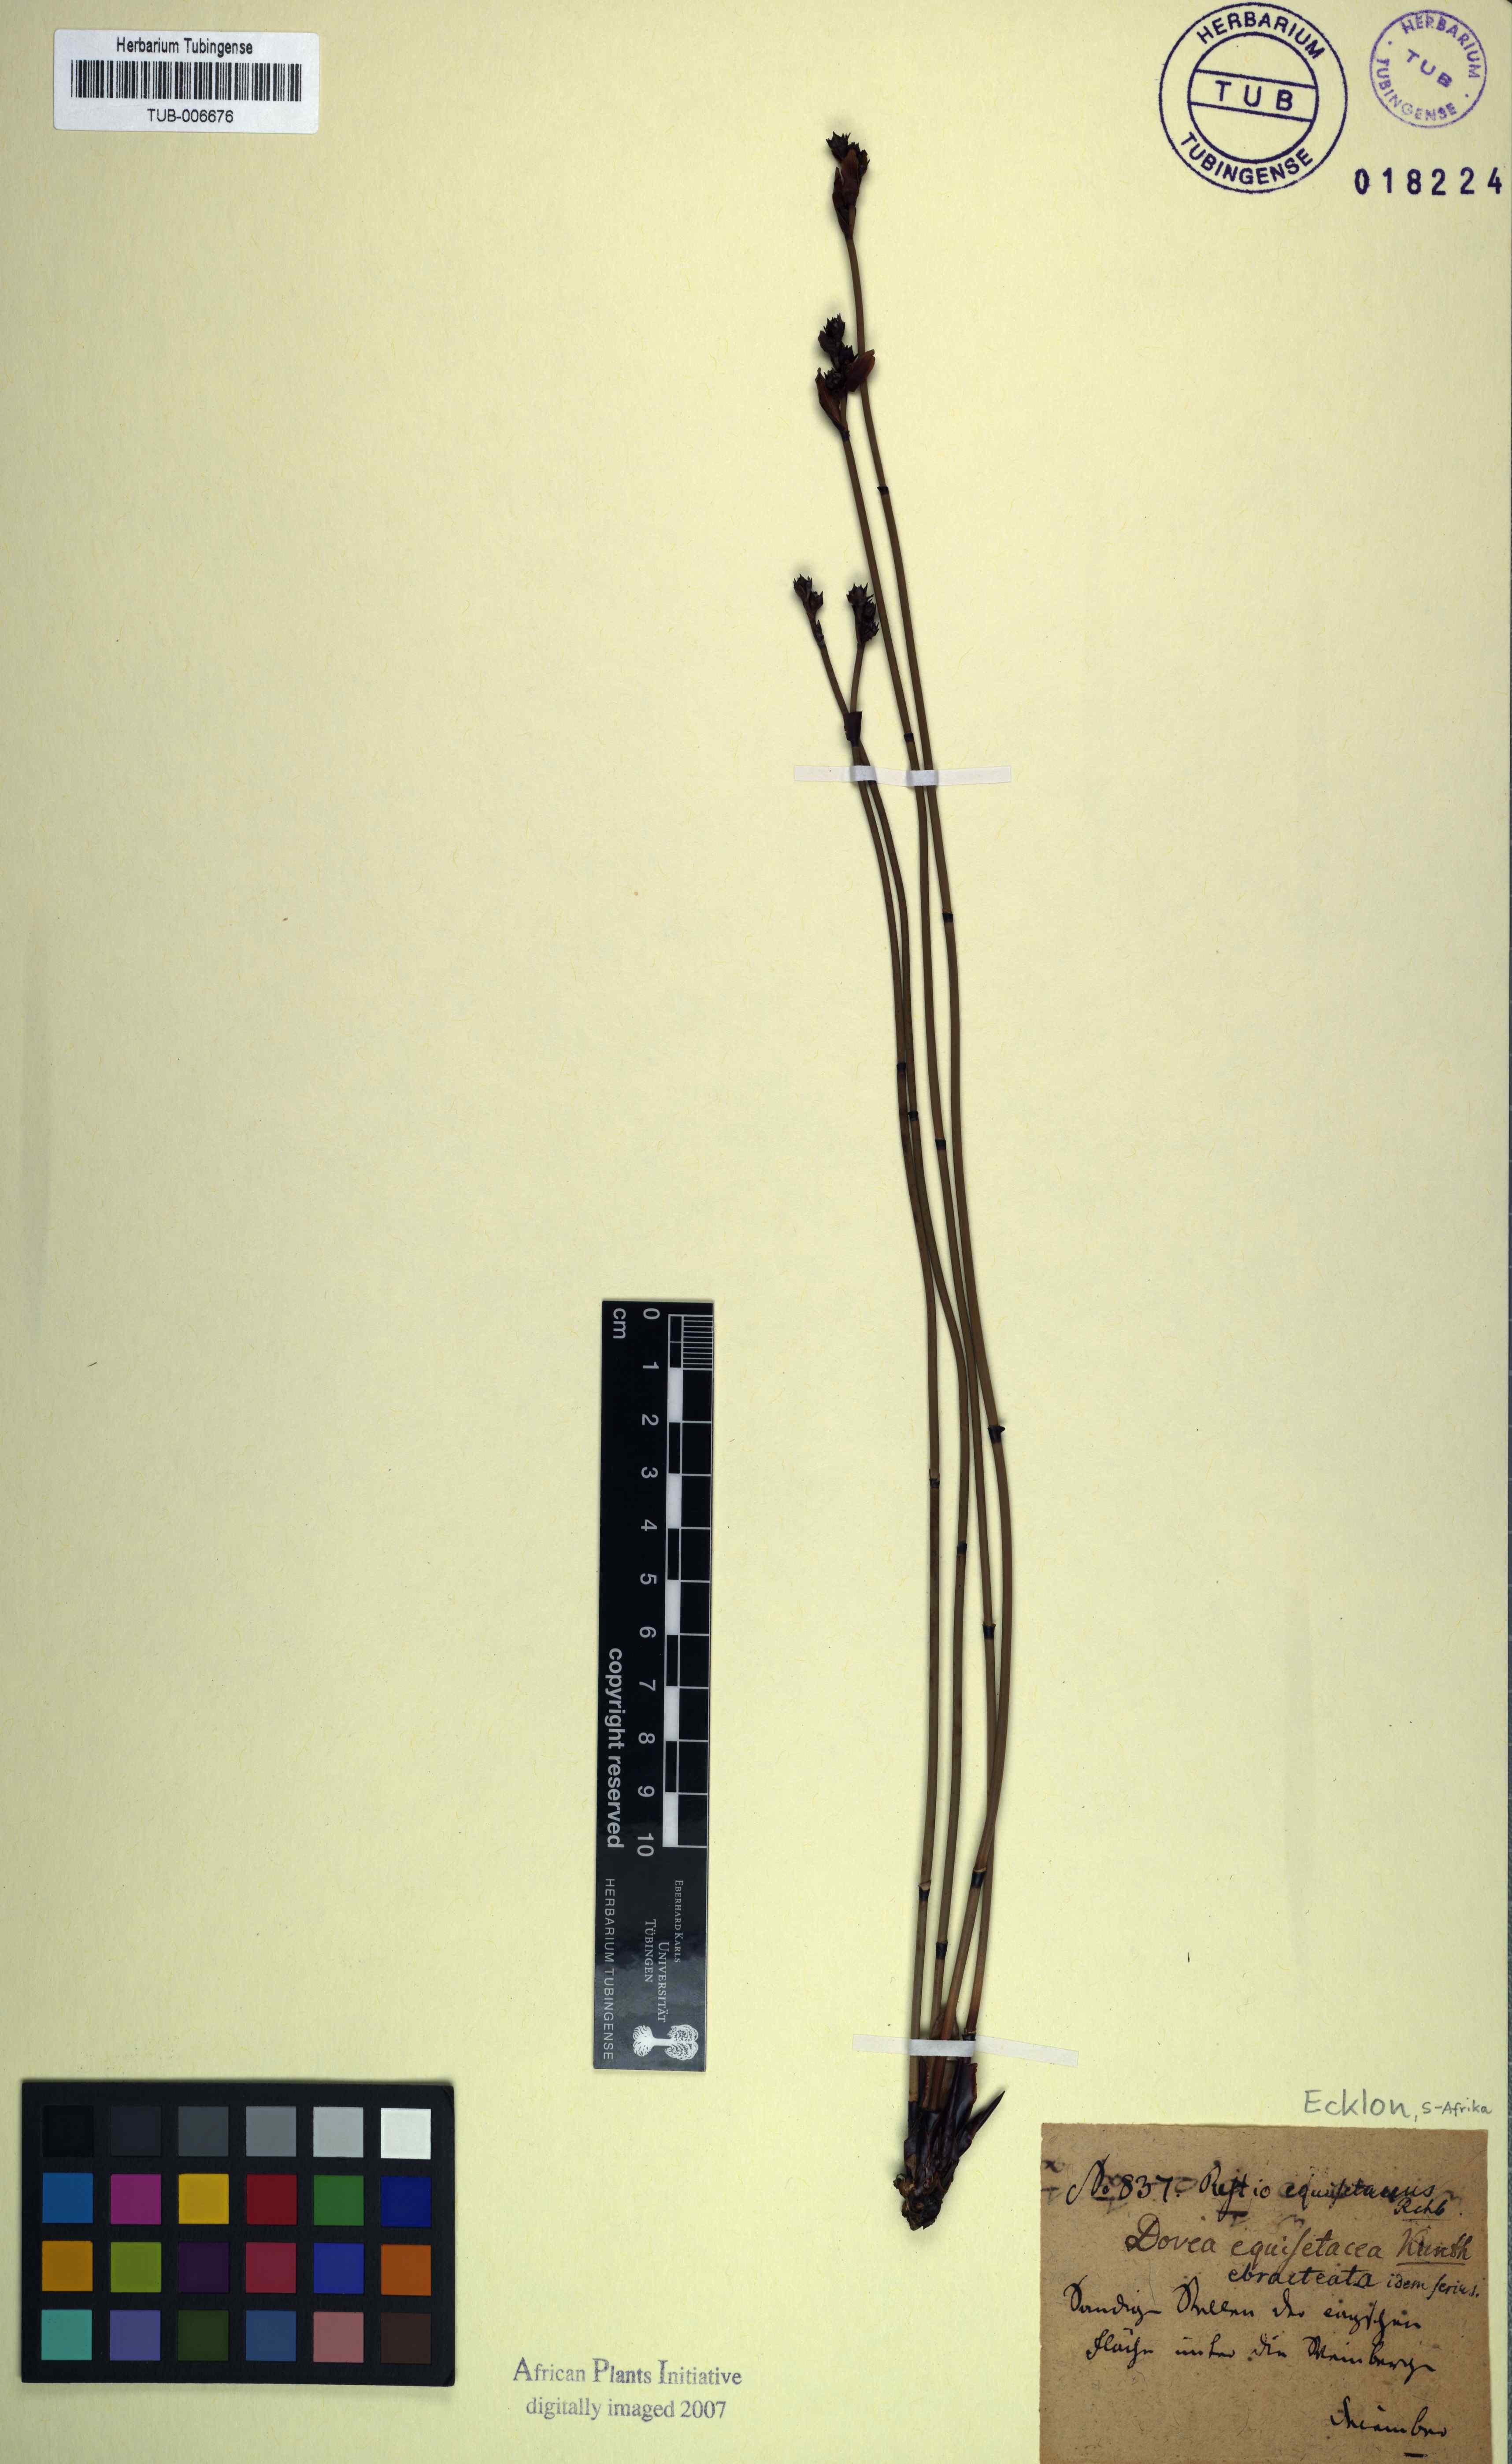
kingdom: Plantae
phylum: Tracheophyta
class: Liliopsida
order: Poales
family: Restionaceae
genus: Elegia
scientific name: Elegia ebracteata
